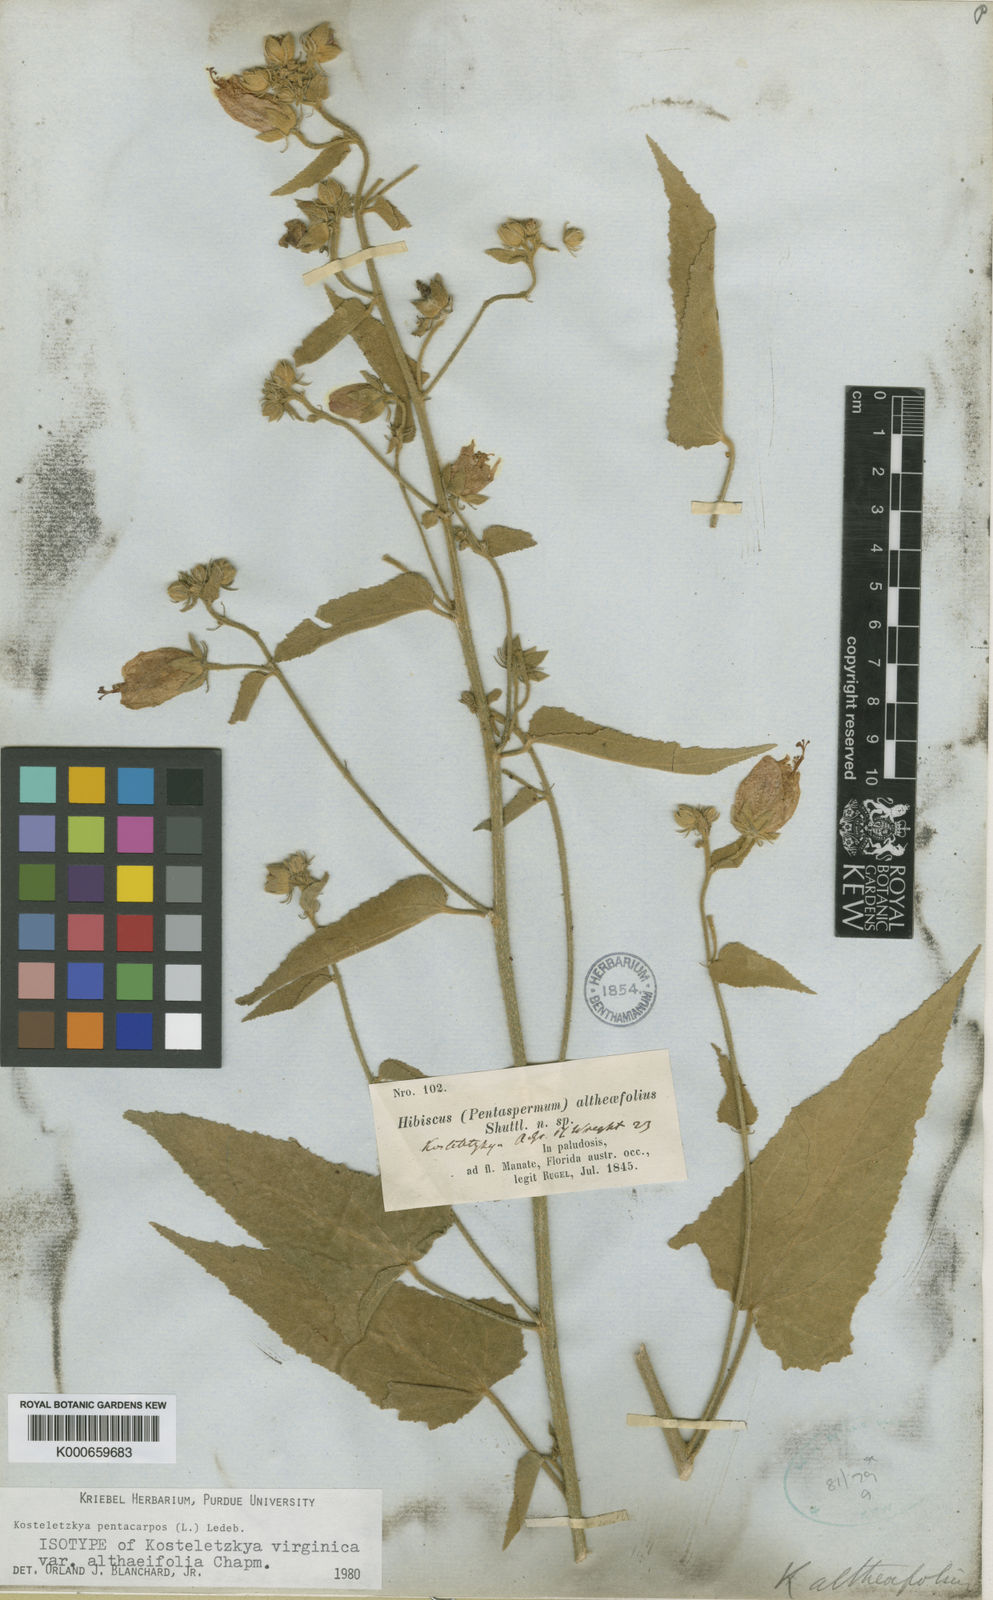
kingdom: Plantae
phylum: Tracheophyta
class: Magnoliopsida
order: Malvales
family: Malvaceae
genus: Kosteletzkya
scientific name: Kosteletzkya
